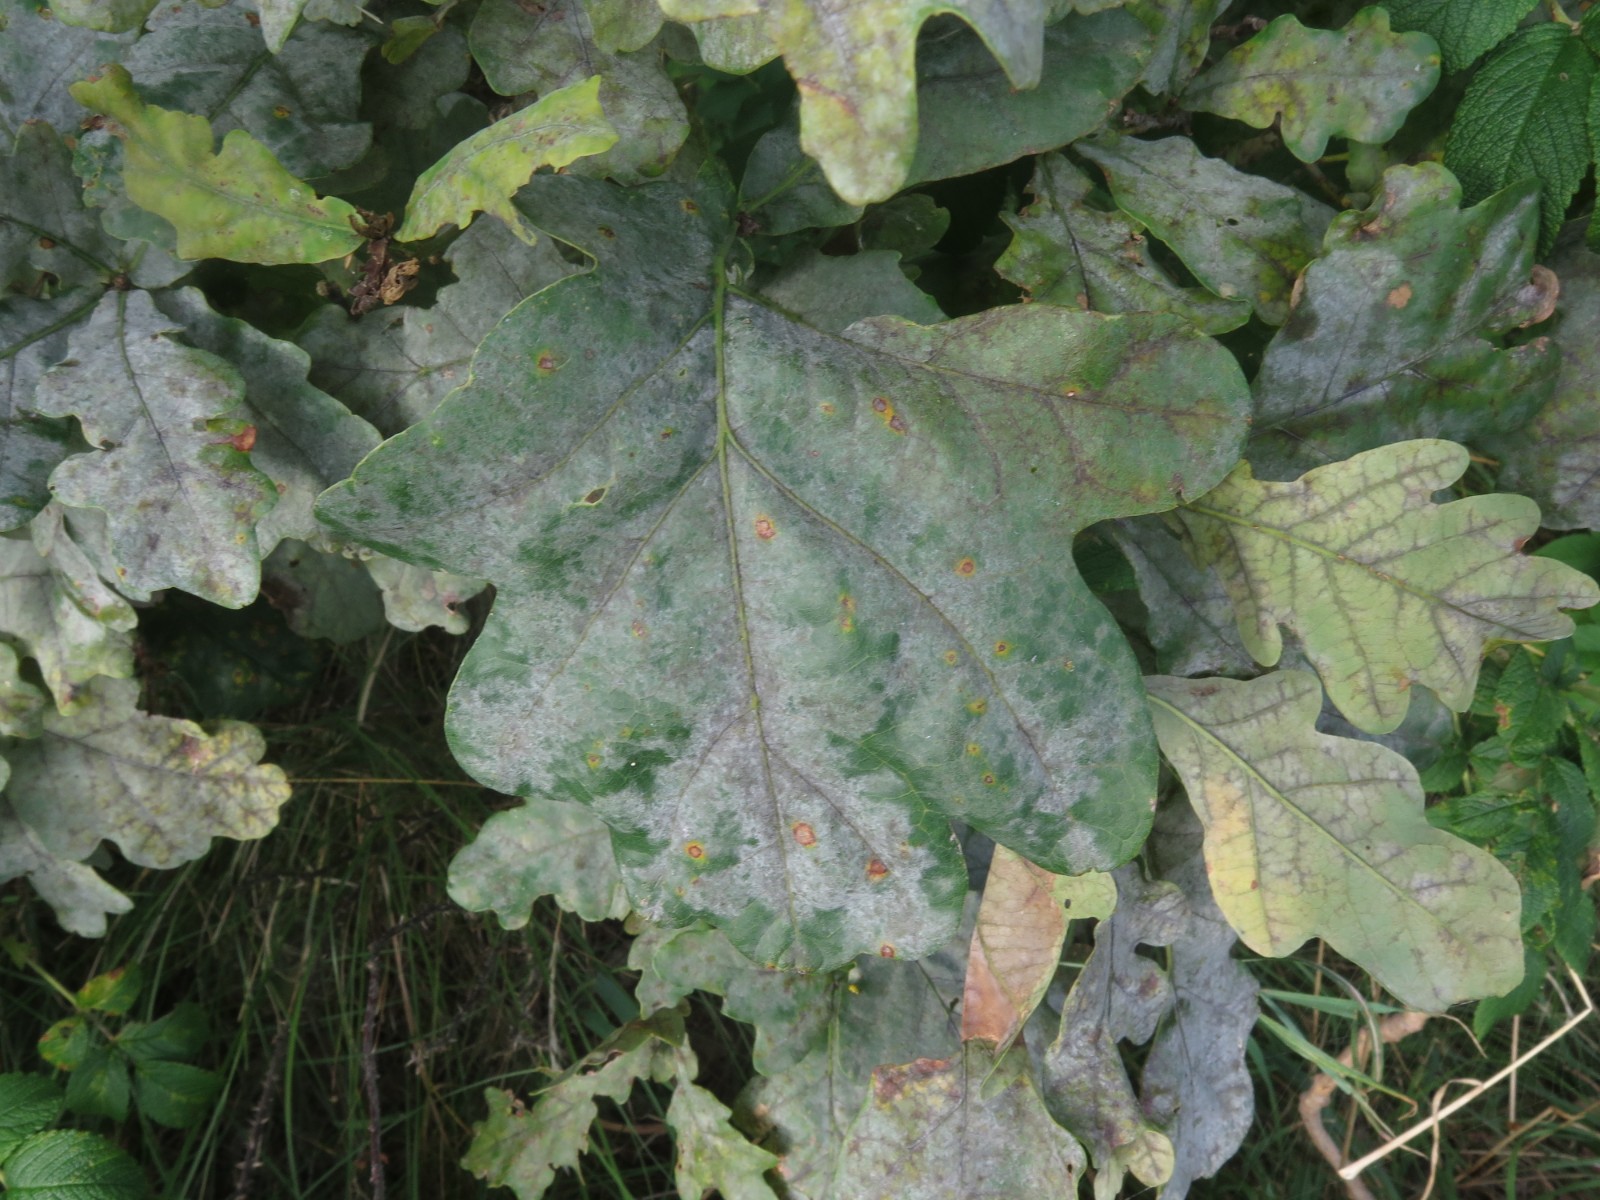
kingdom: Fungi
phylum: Ascomycota
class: Leotiomycetes
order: Helotiales
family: Erysiphaceae
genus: Erysiphe
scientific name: Erysiphe alphitoides
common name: ege-meldug
